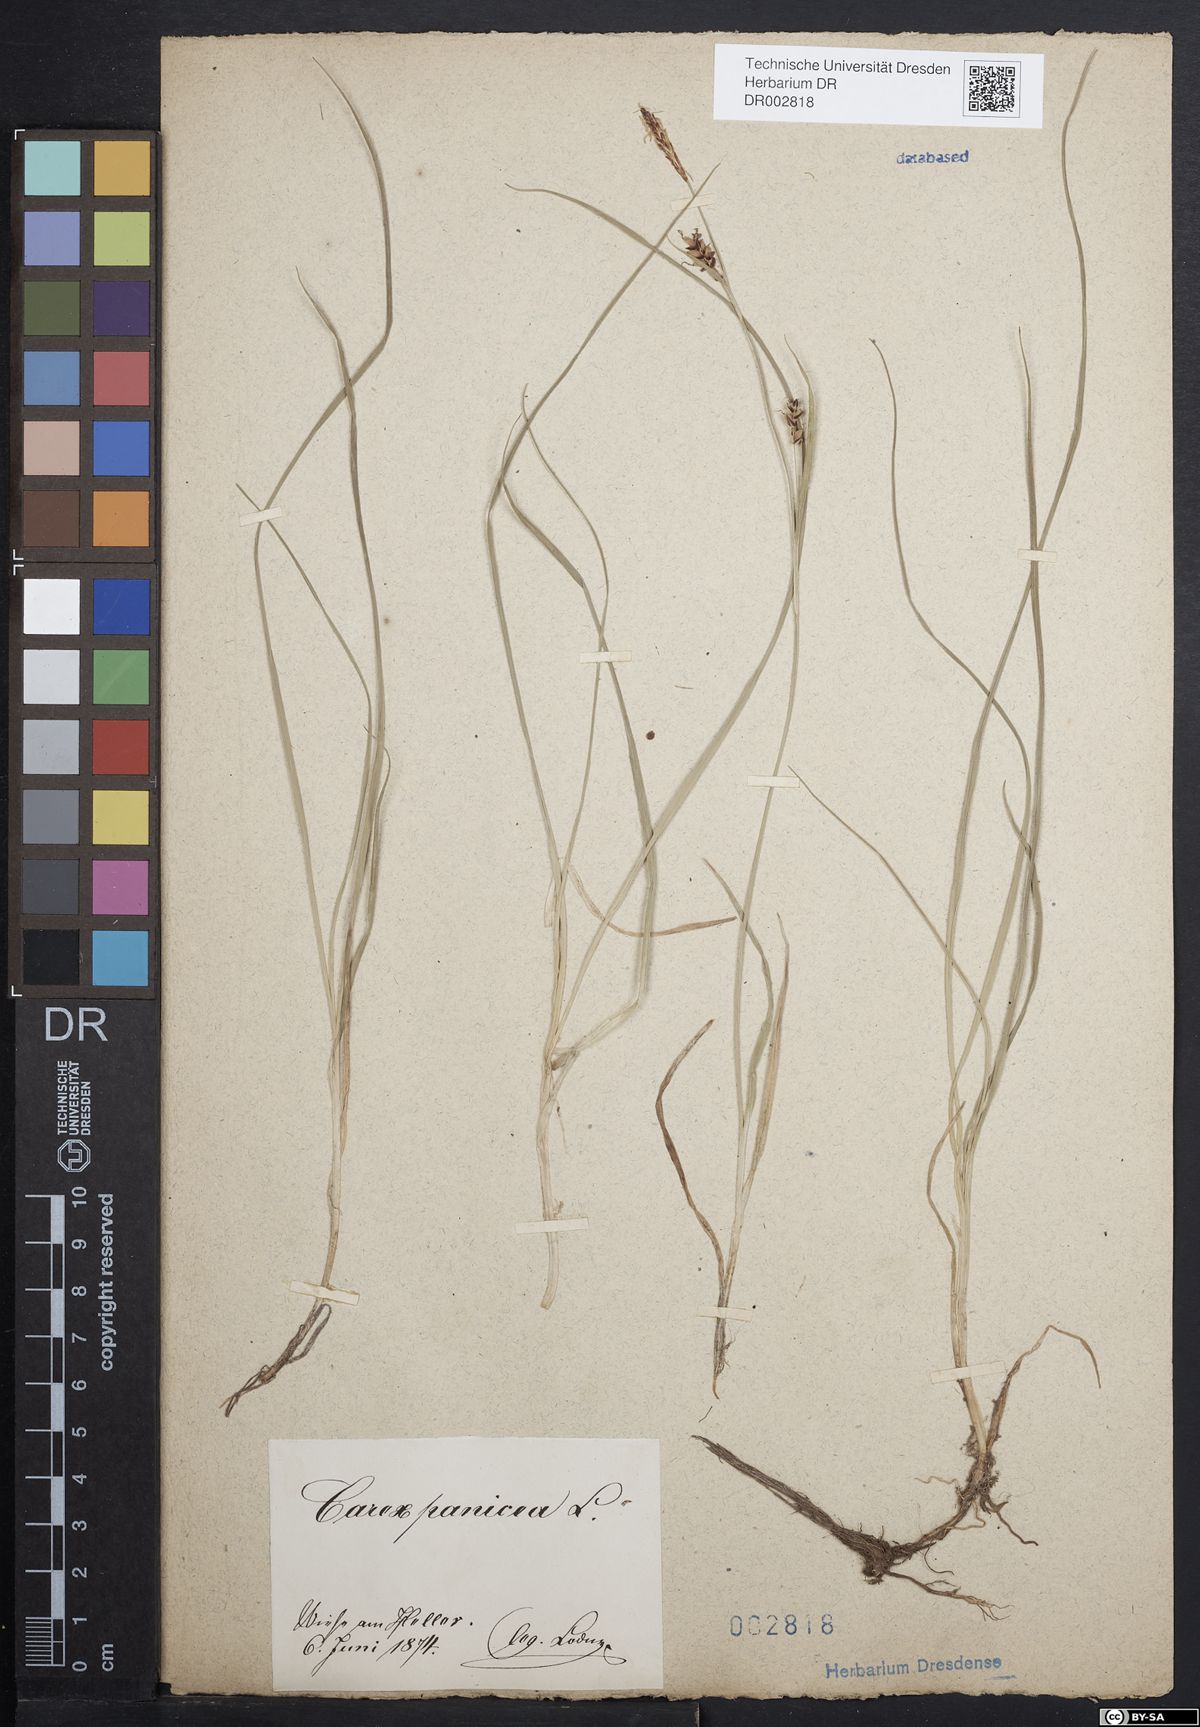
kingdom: Plantae
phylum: Tracheophyta
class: Liliopsida
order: Poales
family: Cyperaceae
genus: Carex
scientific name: Carex panicea
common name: Carnation sedge
